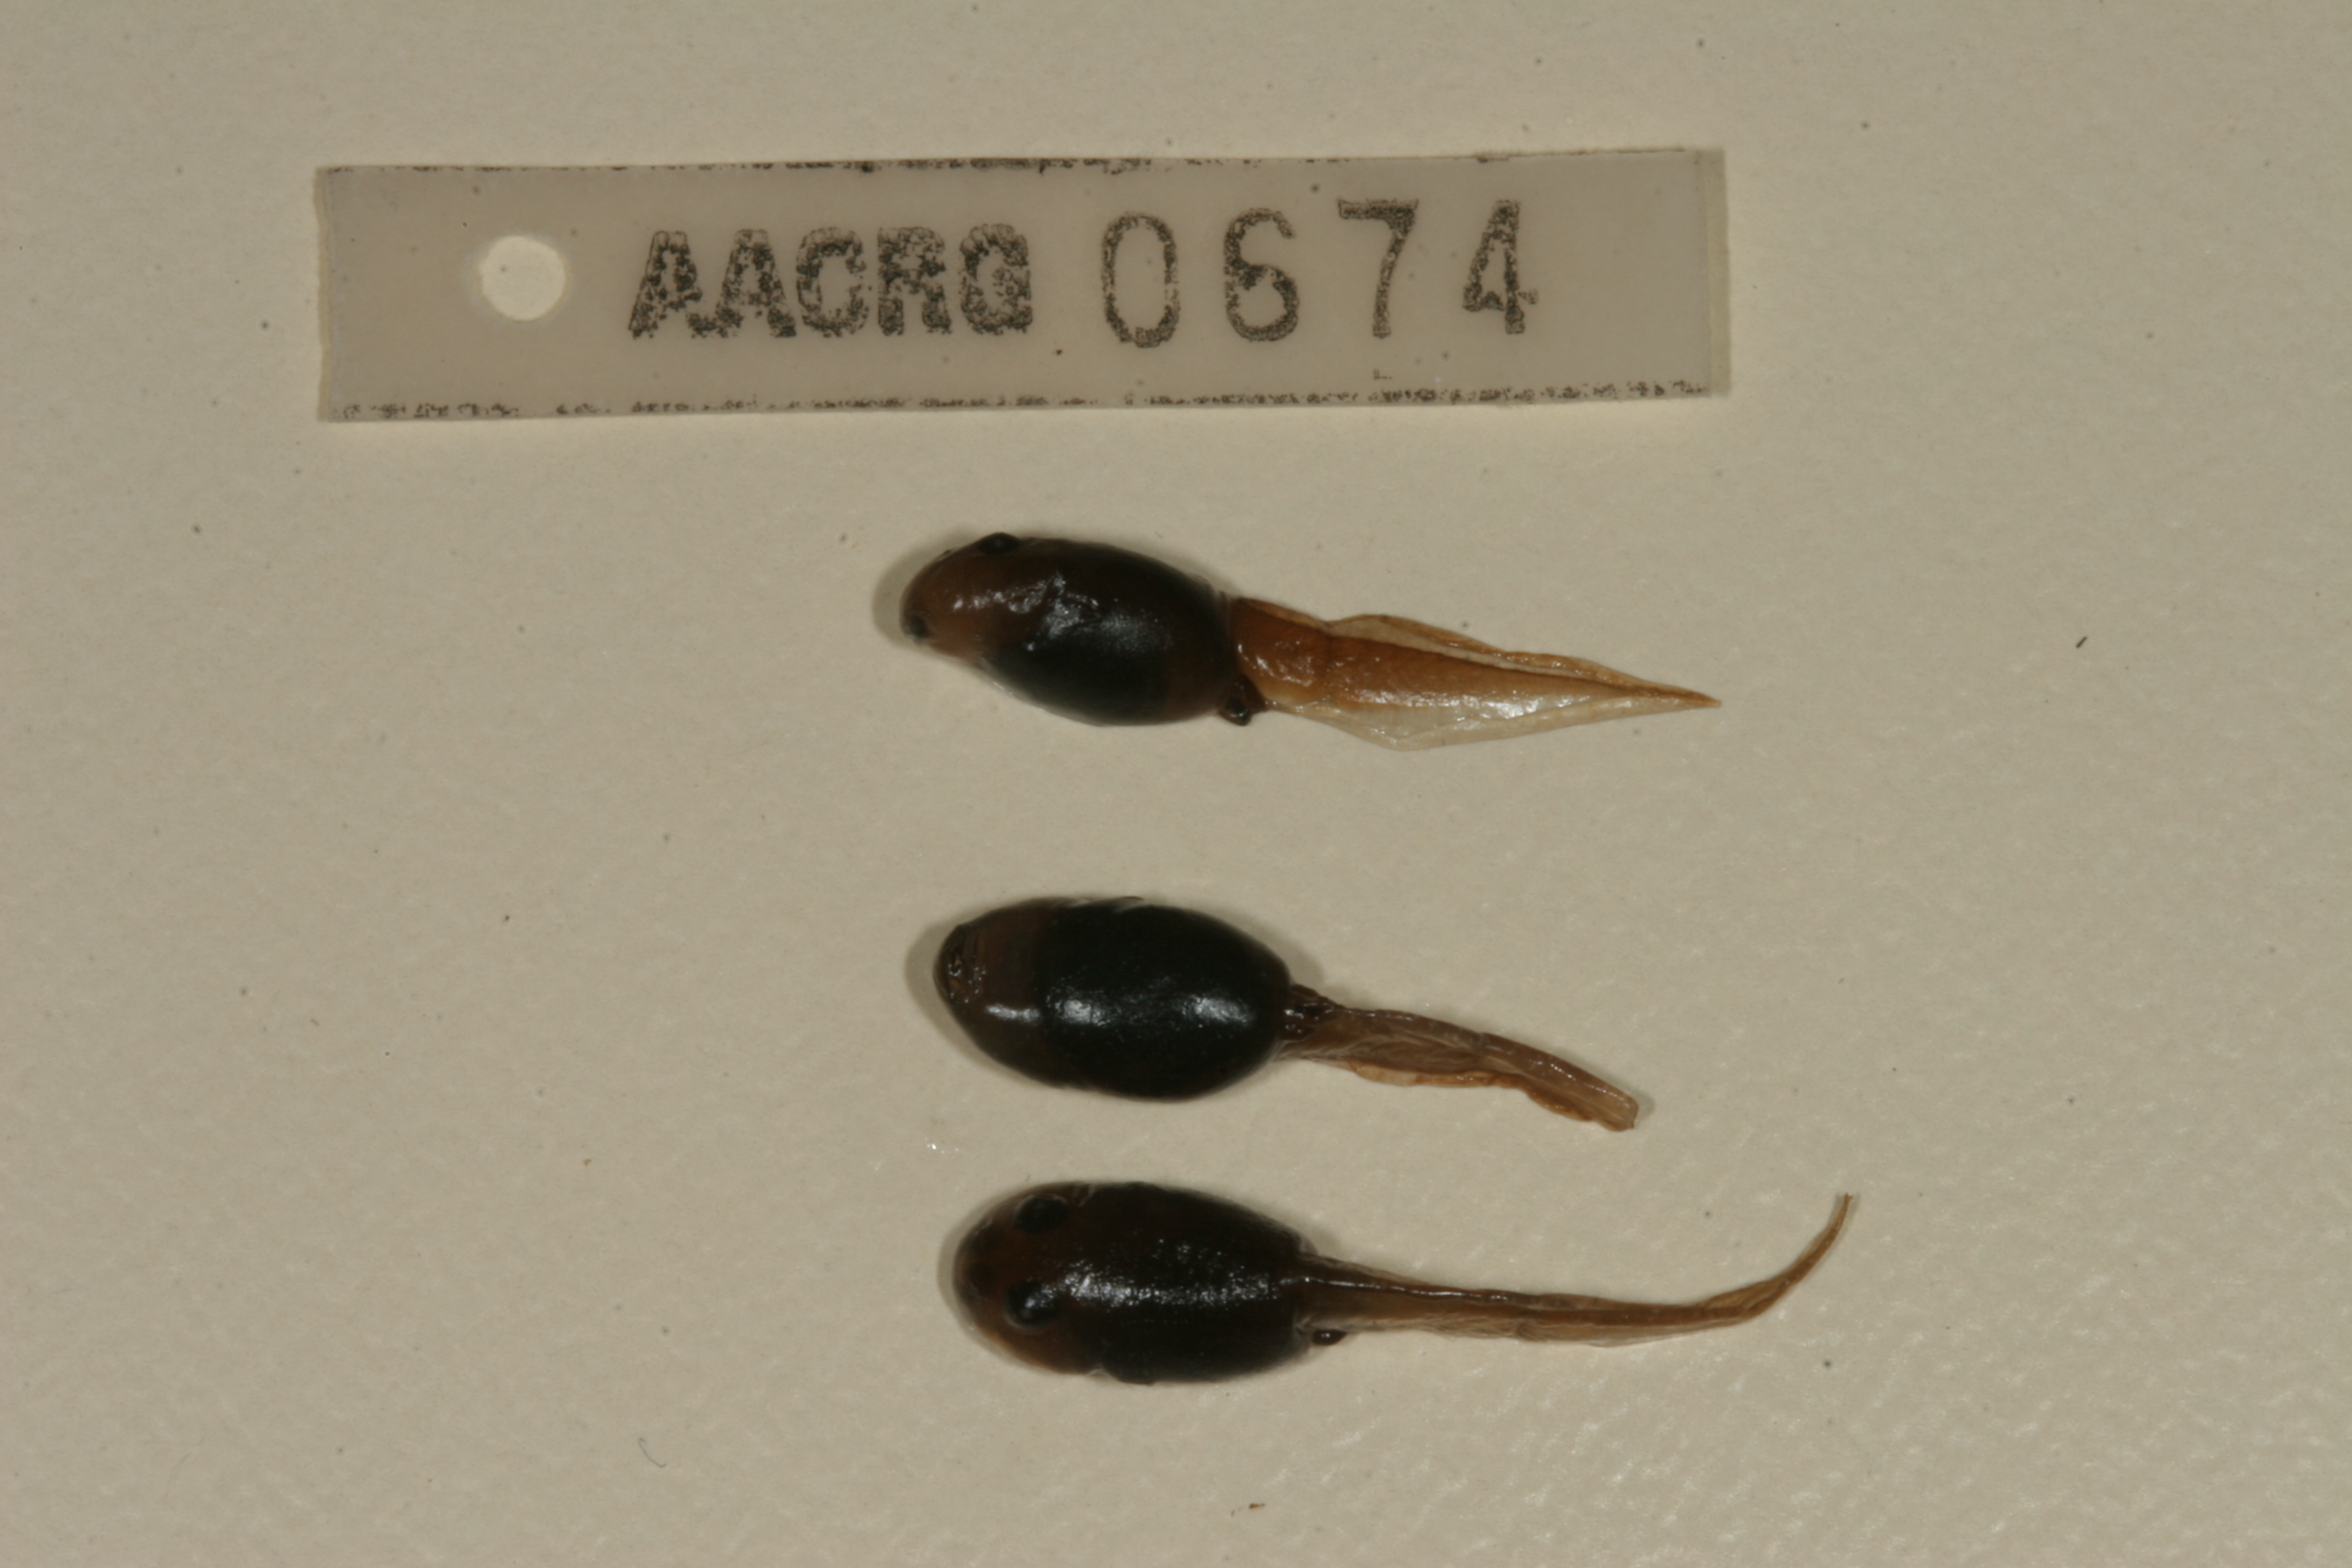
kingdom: Animalia
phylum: Chordata
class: Amphibia
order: Anura
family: Bufonidae
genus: Vandijkophrynus
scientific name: Vandijkophrynus angusticeps
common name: Sand toad
